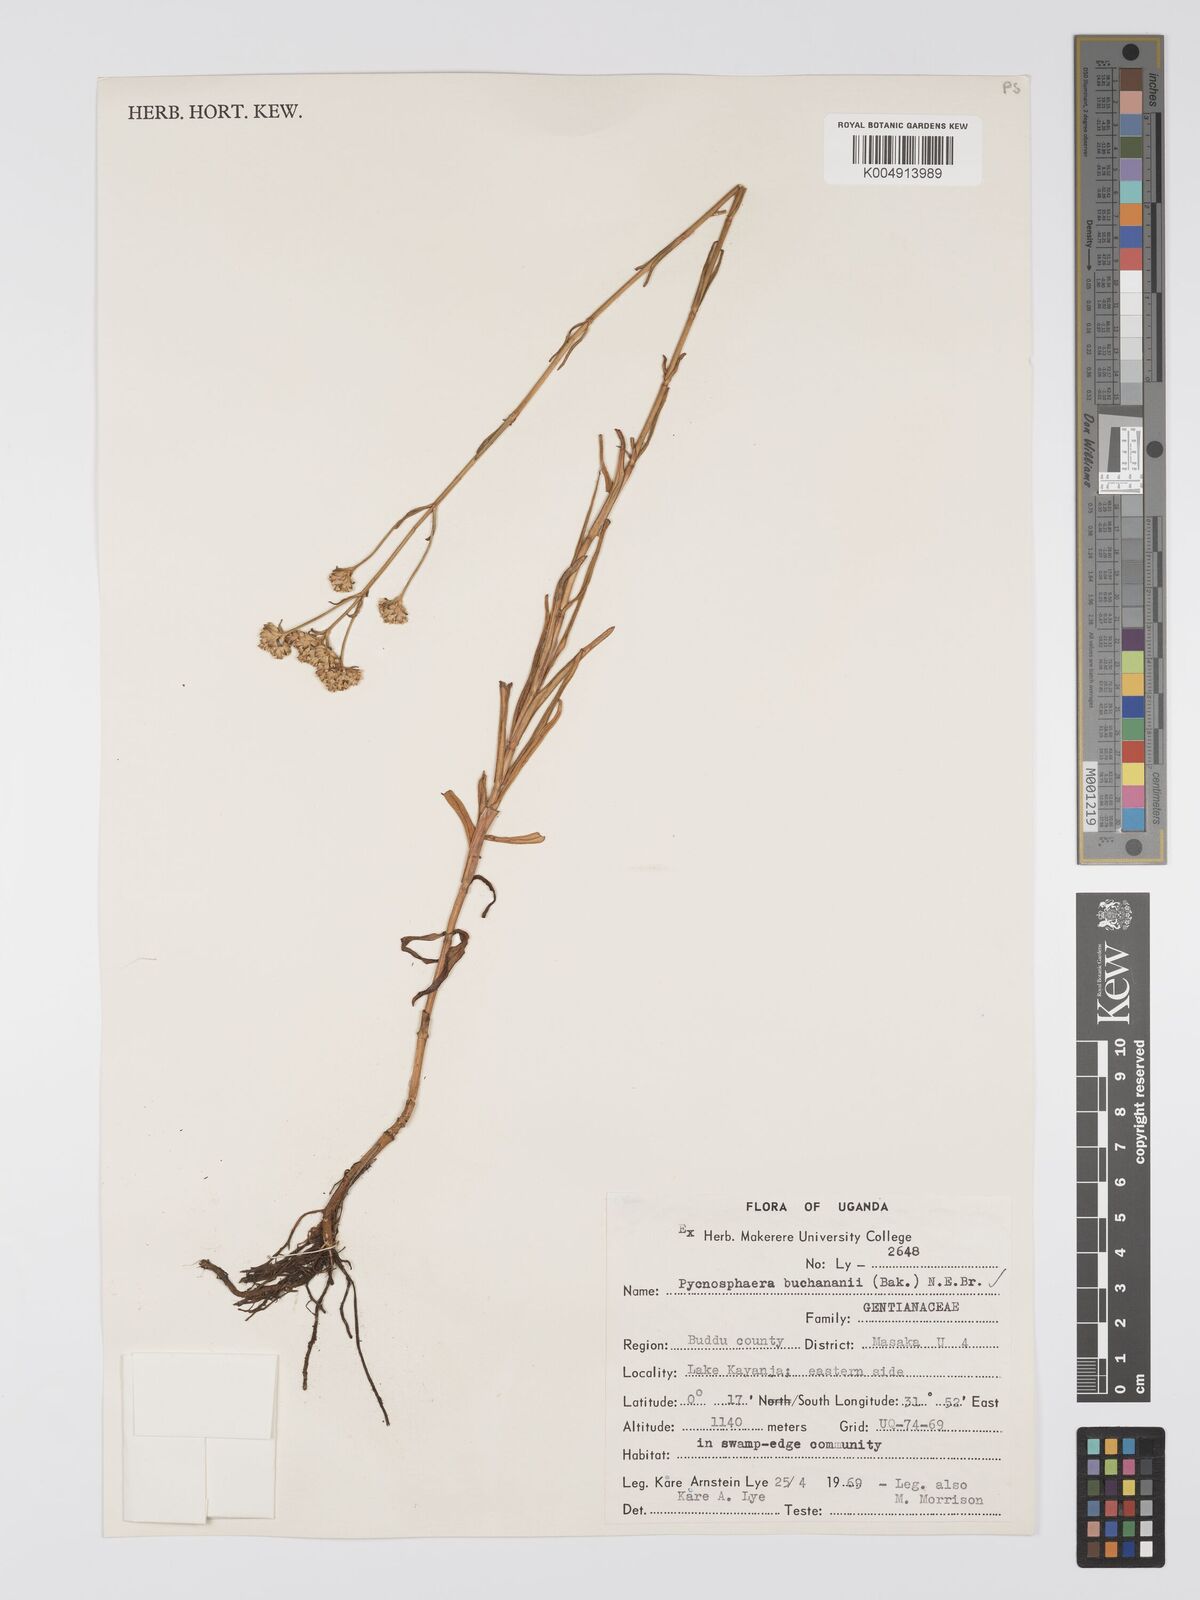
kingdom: Plantae
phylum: Tracheophyta
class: Magnoliopsida
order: Gentianales
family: Gentianaceae
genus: Pycnosphaera
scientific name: Pycnosphaera buchananii
